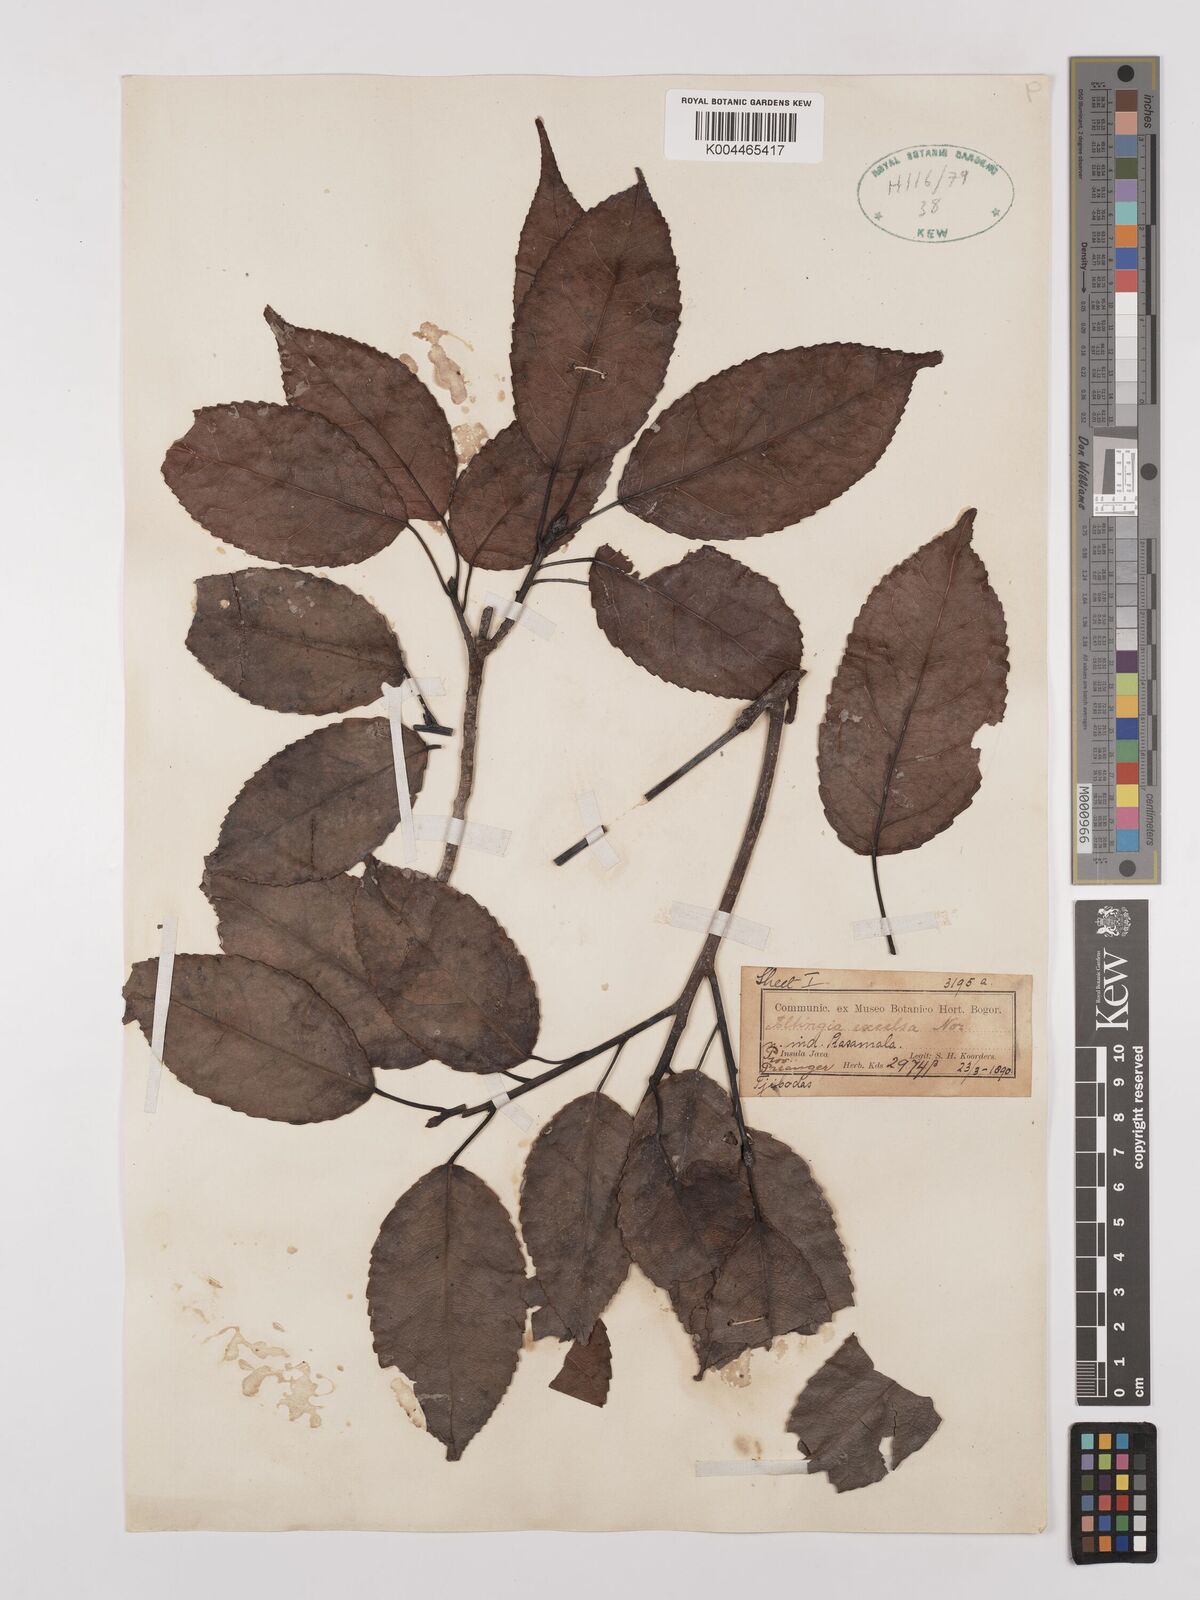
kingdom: Plantae
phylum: Tracheophyta
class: Magnoliopsida
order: Saxifragales
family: Altingiaceae
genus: Liquidambar
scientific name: Liquidambar excelsa
